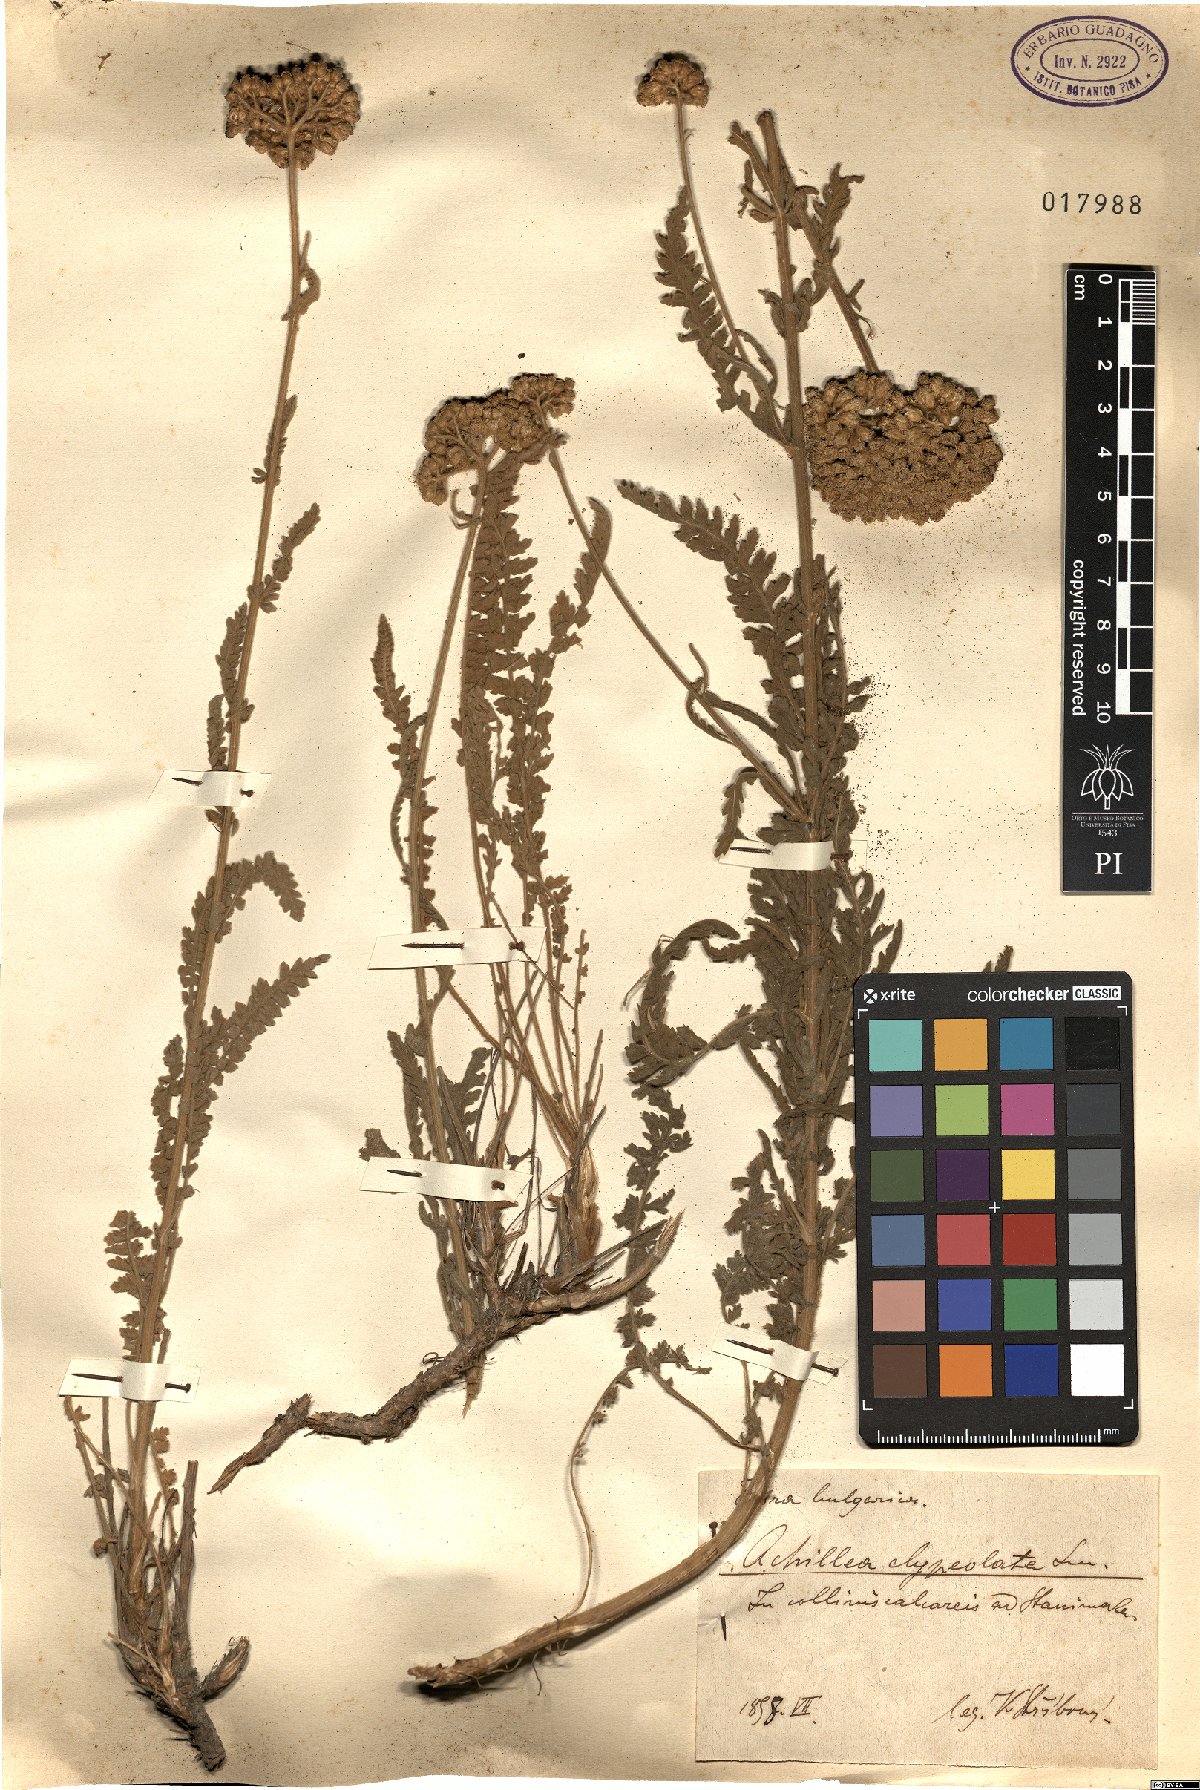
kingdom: Plantae
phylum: Tracheophyta
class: Magnoliopsida
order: Asterales
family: Asteraceae
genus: Achillea
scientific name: Achillea clypeolata
